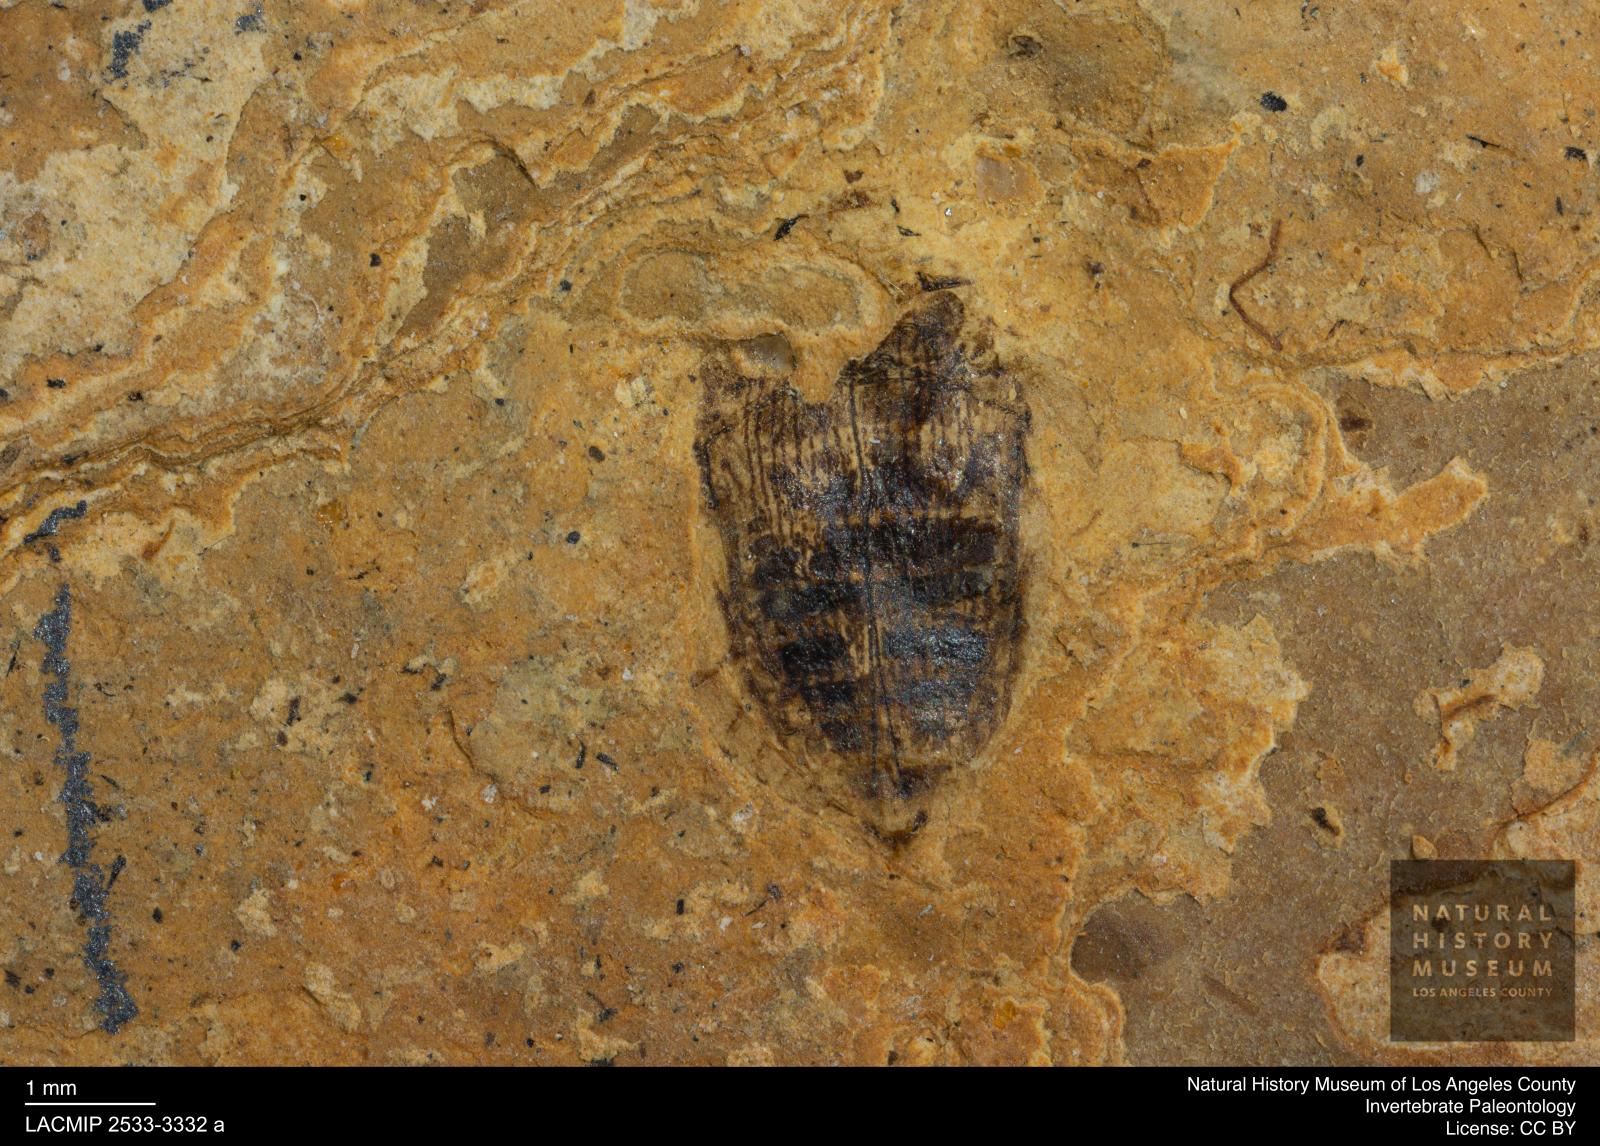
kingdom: Animalia
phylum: Arthropoda
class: Insecta
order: Coleoptera
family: Dytiscidae
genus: Laccophilus
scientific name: Laccophilus Palaeogyrinus strigatus
